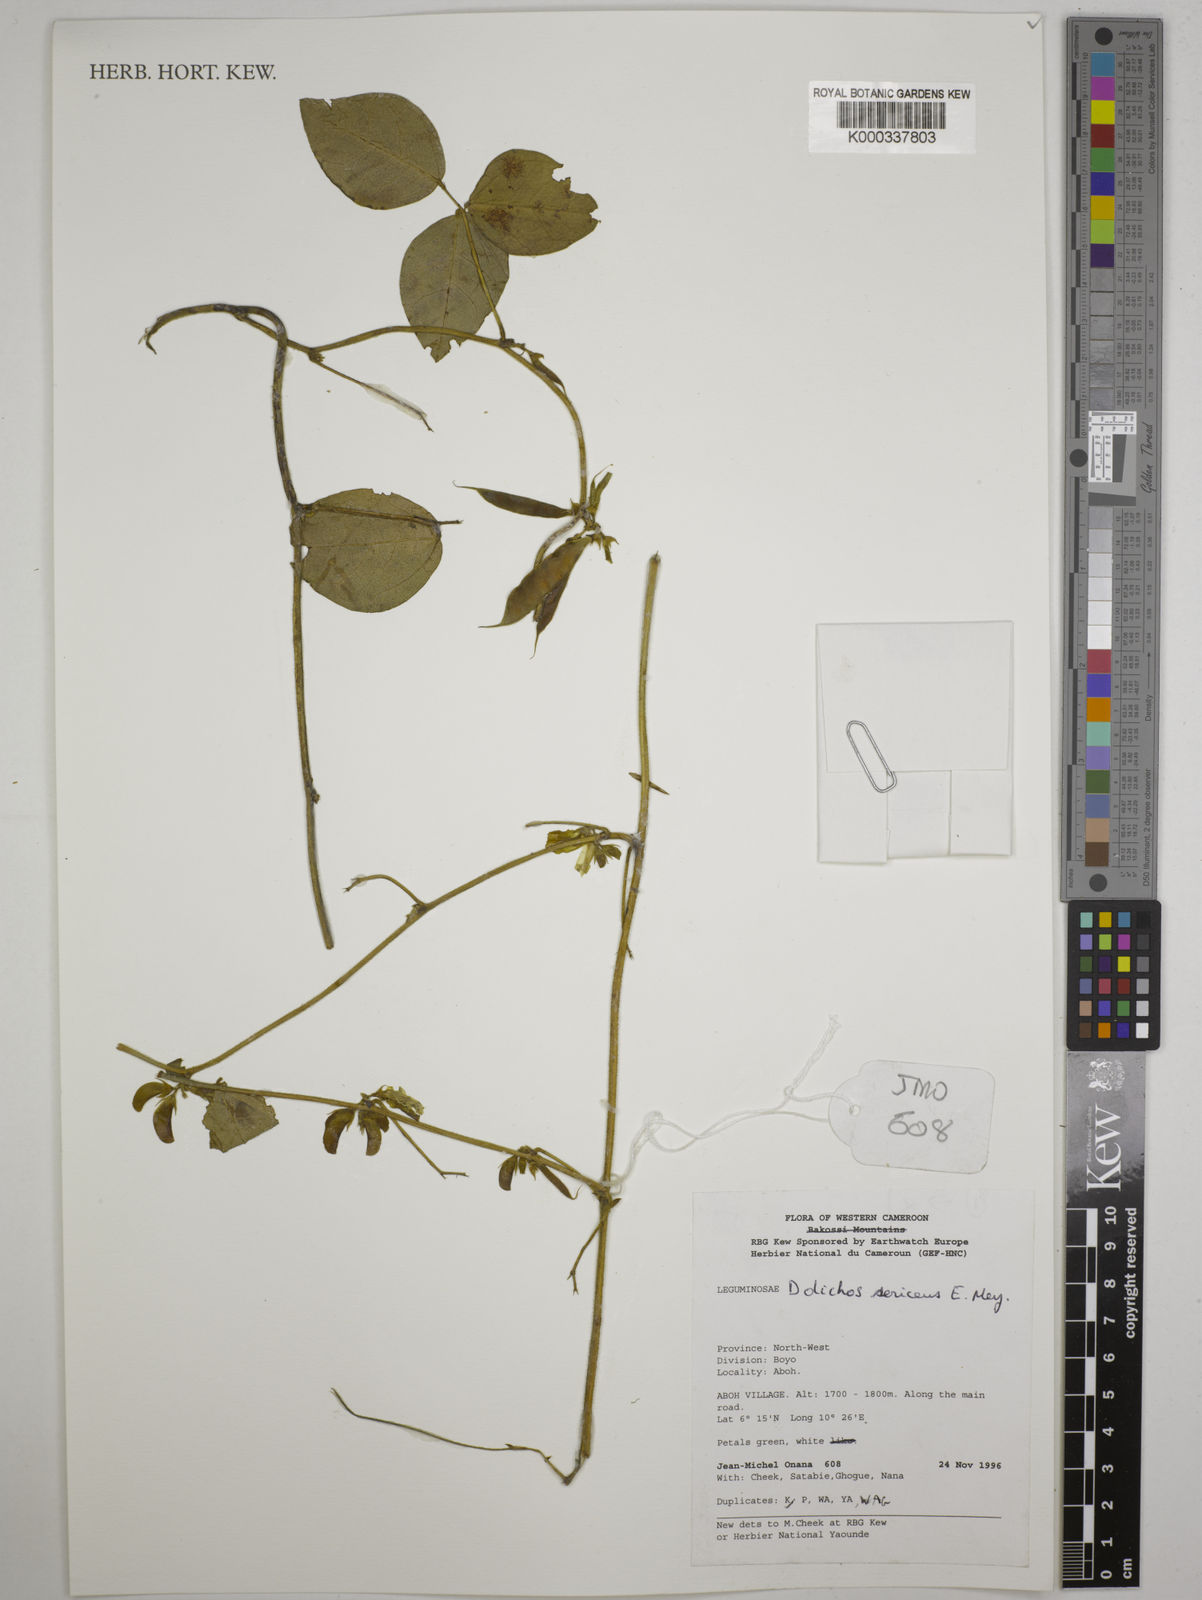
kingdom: Plantae
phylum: Tracheophyta
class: Magnoliopsida
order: Fabales
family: Fabaceae
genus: Dolichos
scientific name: Dolichos sericeus
